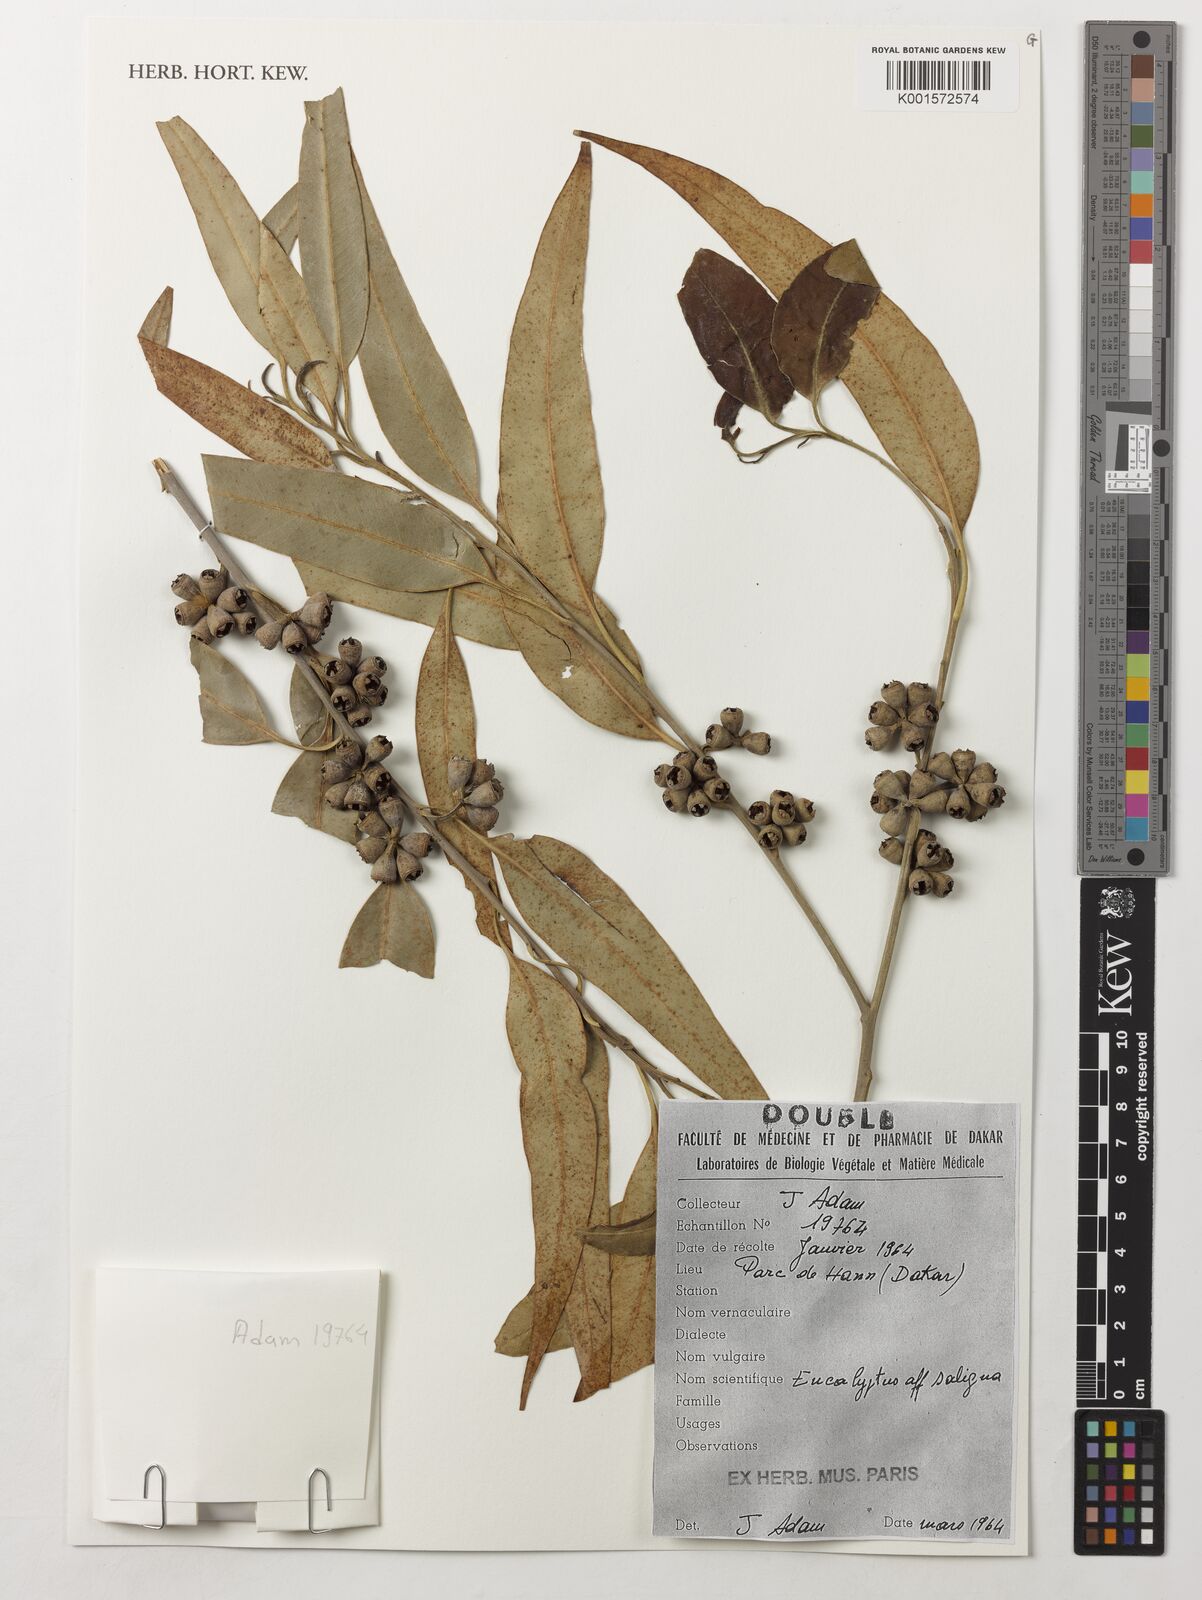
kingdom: Plantae
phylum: Tracheophyta
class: Magnoliopsida
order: Myrtales
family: Myrtaceae
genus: Eucalyptus
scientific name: Eucalyptus saligna
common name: Blue gum
